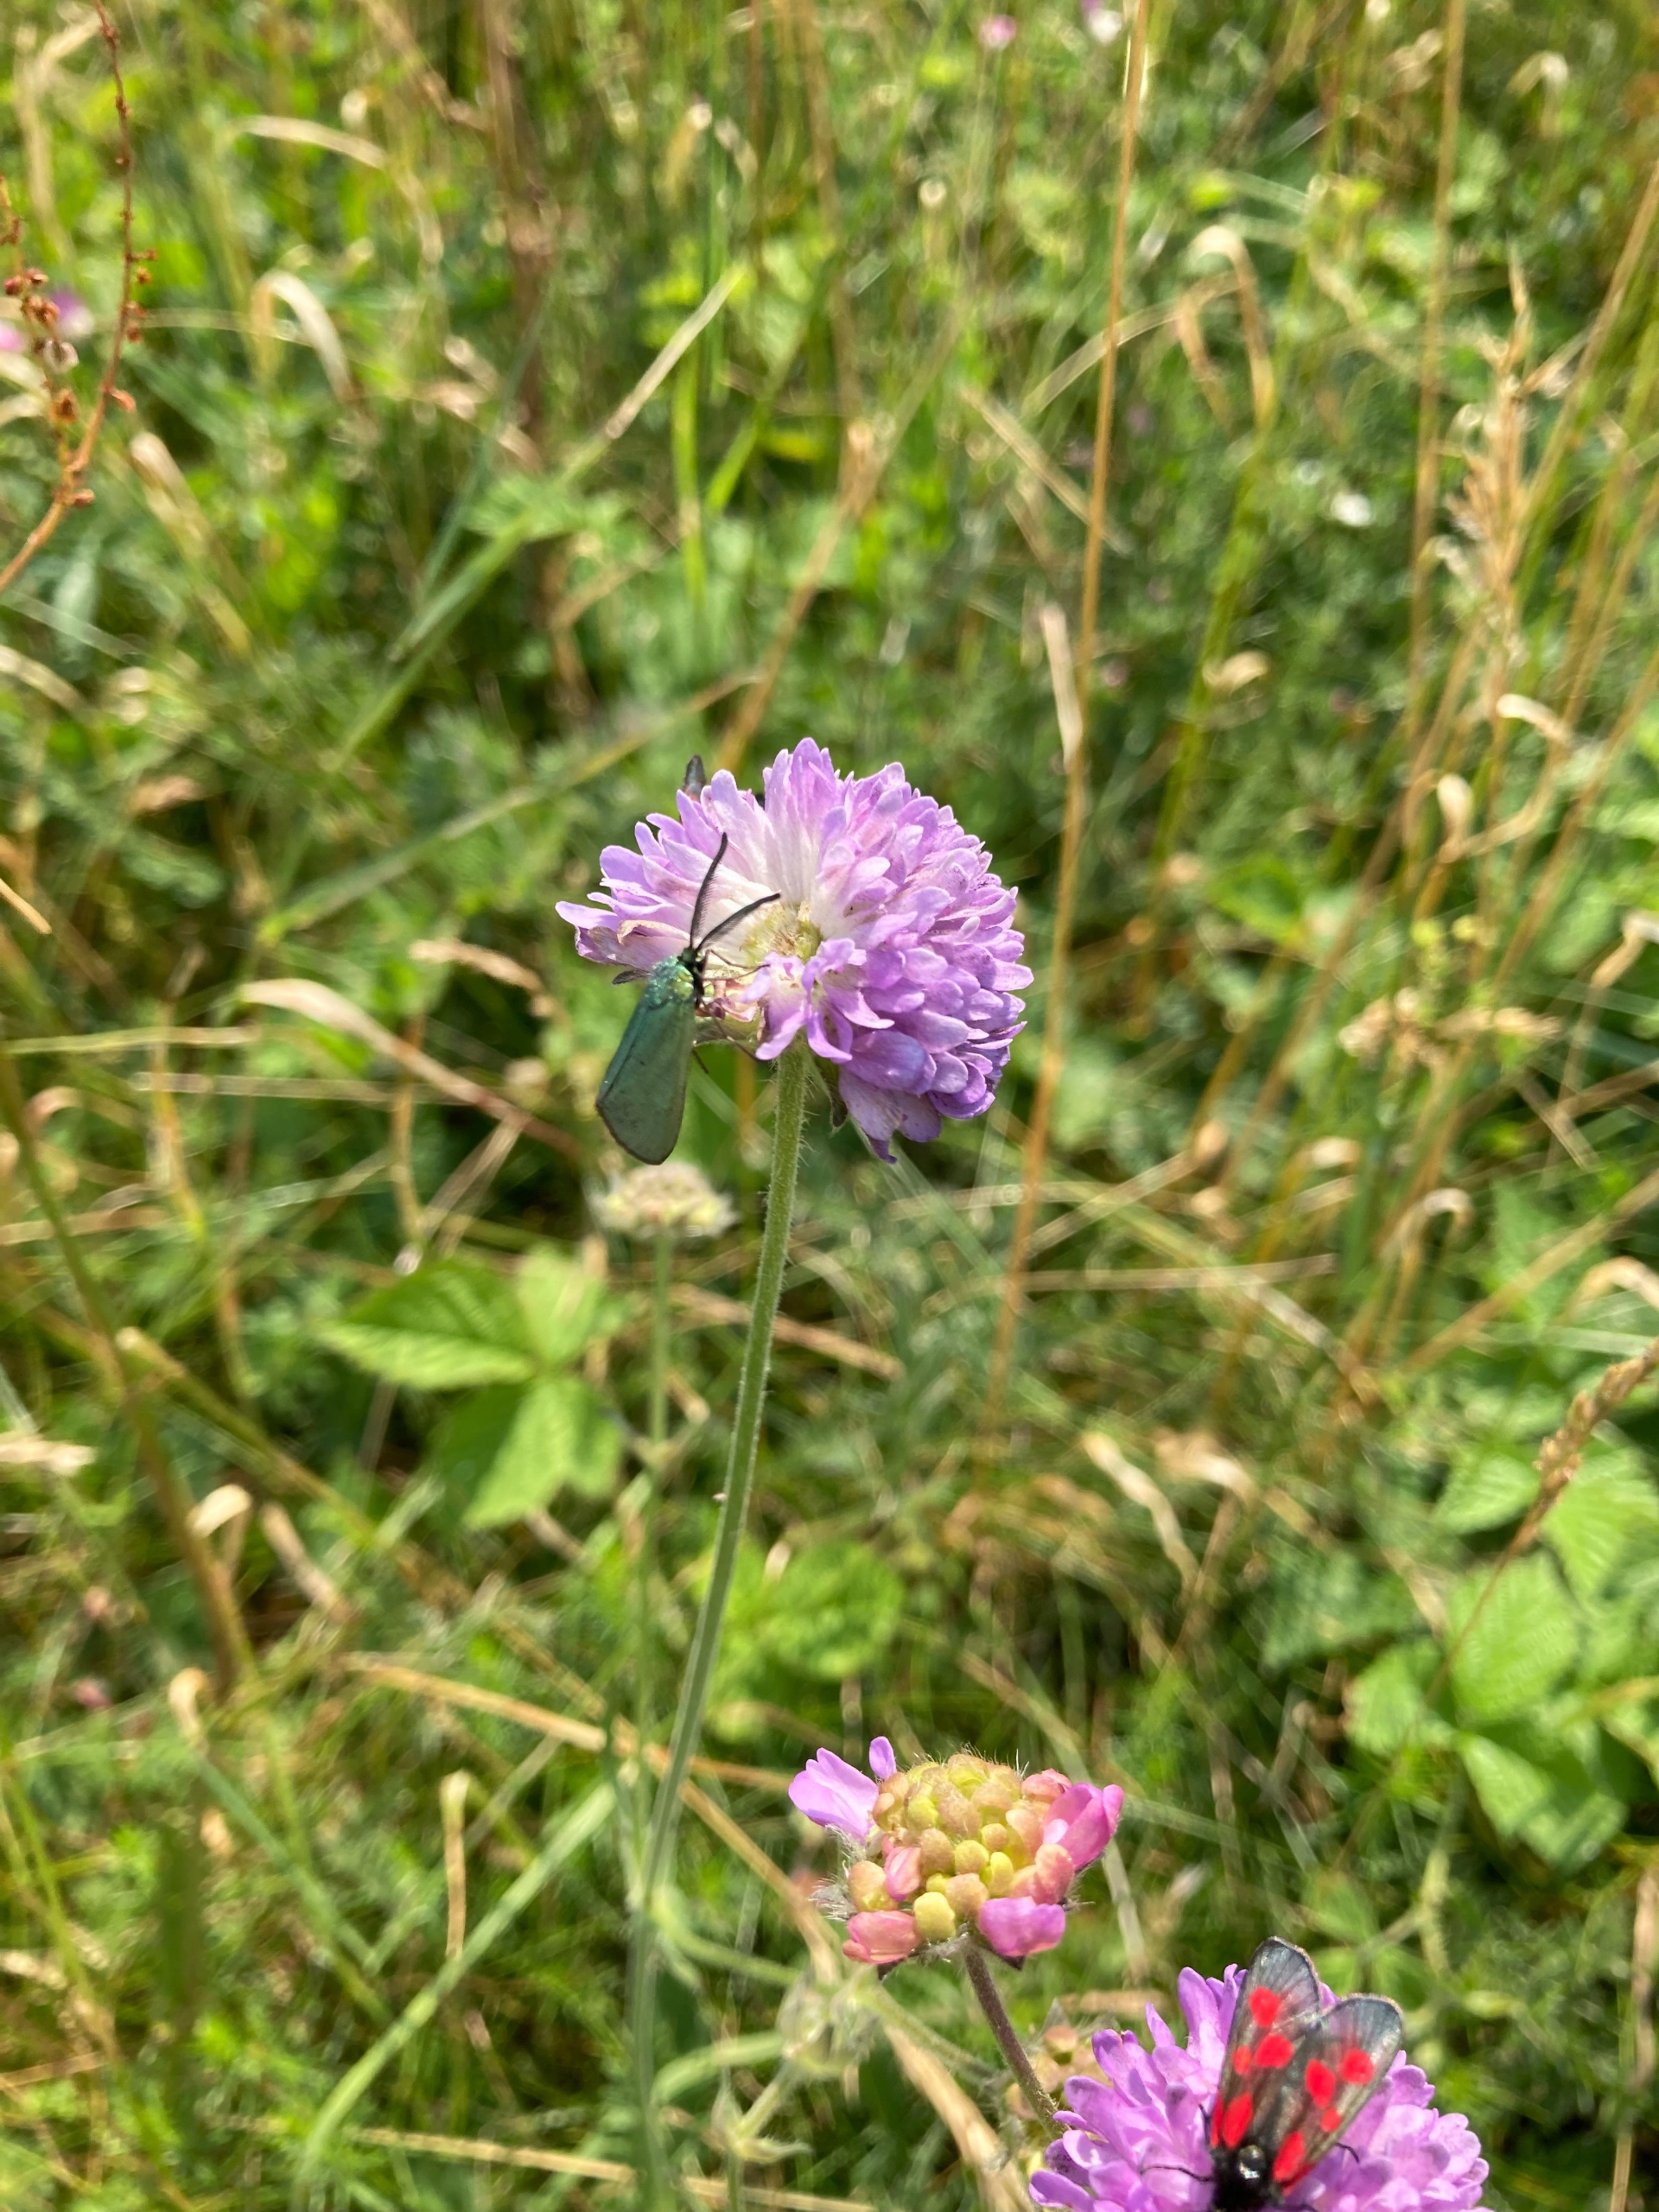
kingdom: Animalia
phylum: Arthropoda
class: Insecta
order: Lepidoptera
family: Zygaenidae
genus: Adscita
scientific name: Adscita statices
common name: Metalvinge
